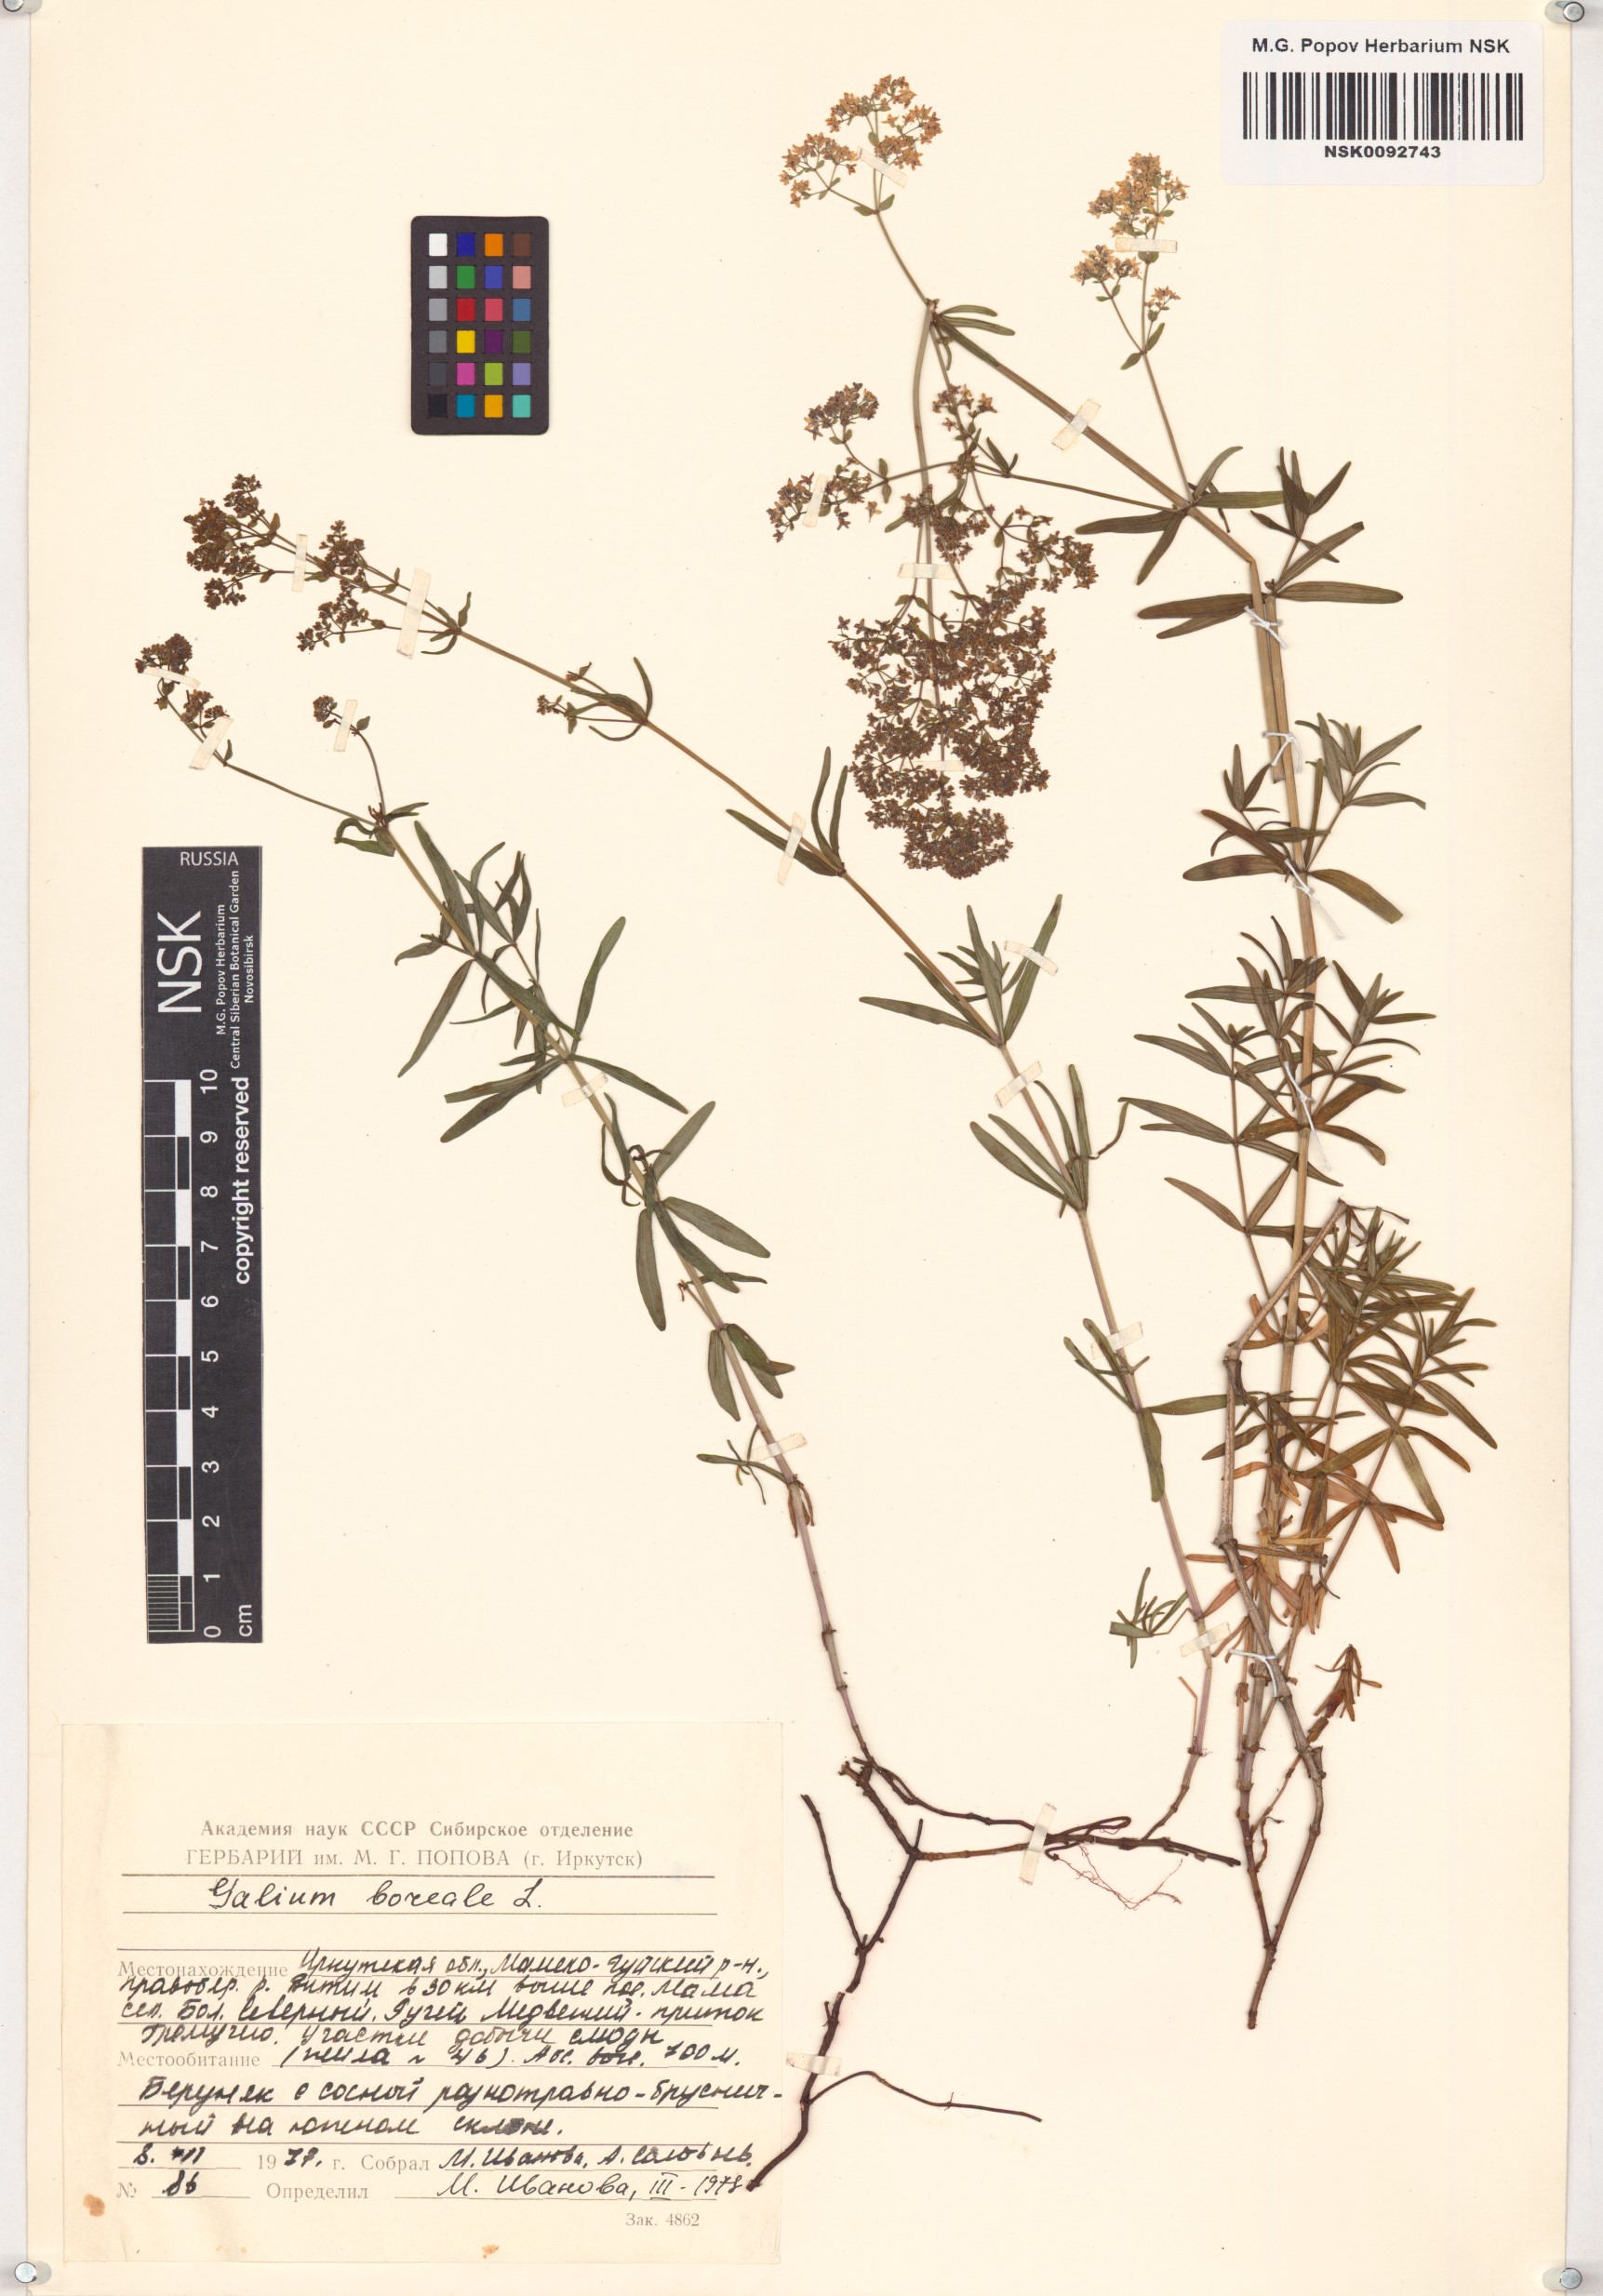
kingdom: Plantae
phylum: Tracheophyta
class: Magnoliopsida
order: Gentianales
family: Rubiaceae
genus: Galium
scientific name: Galium boreale
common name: Northern bedstraw
